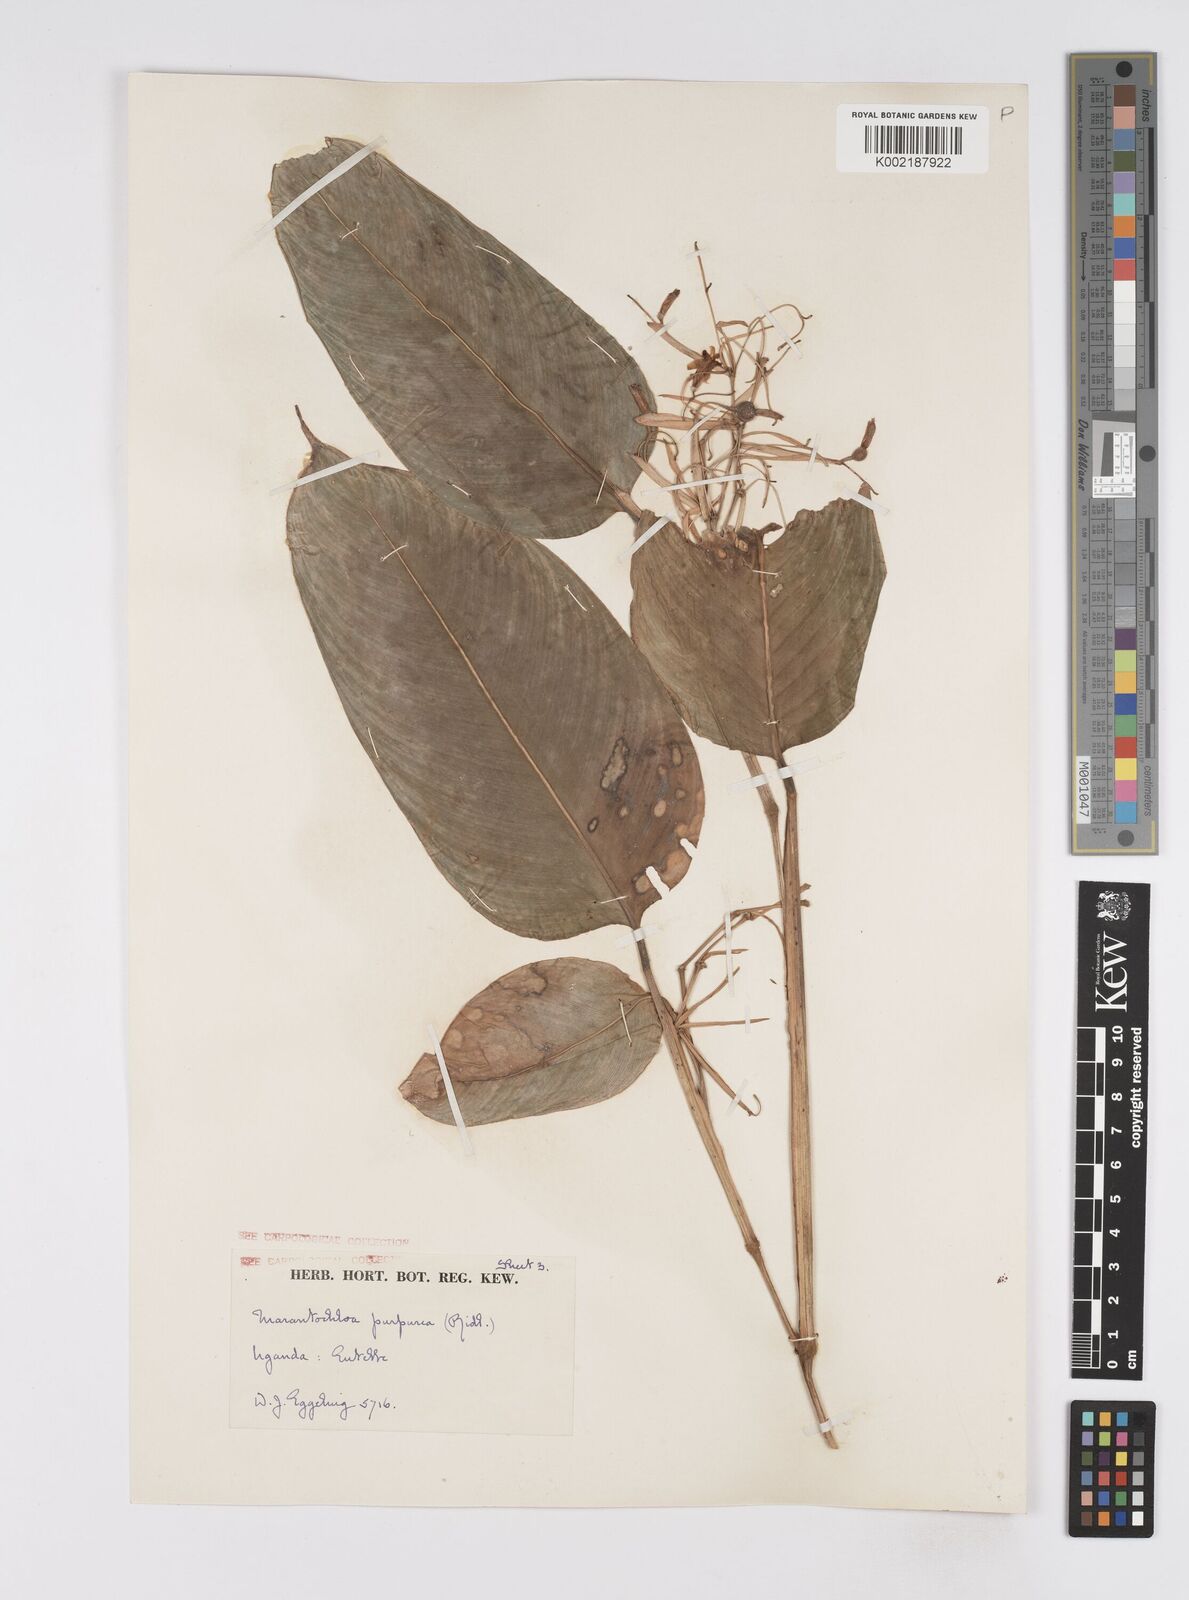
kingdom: Plantae
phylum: Tracheophyta
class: Liliopsida
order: Zingiberales
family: Marantaceae
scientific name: Marantaceae
